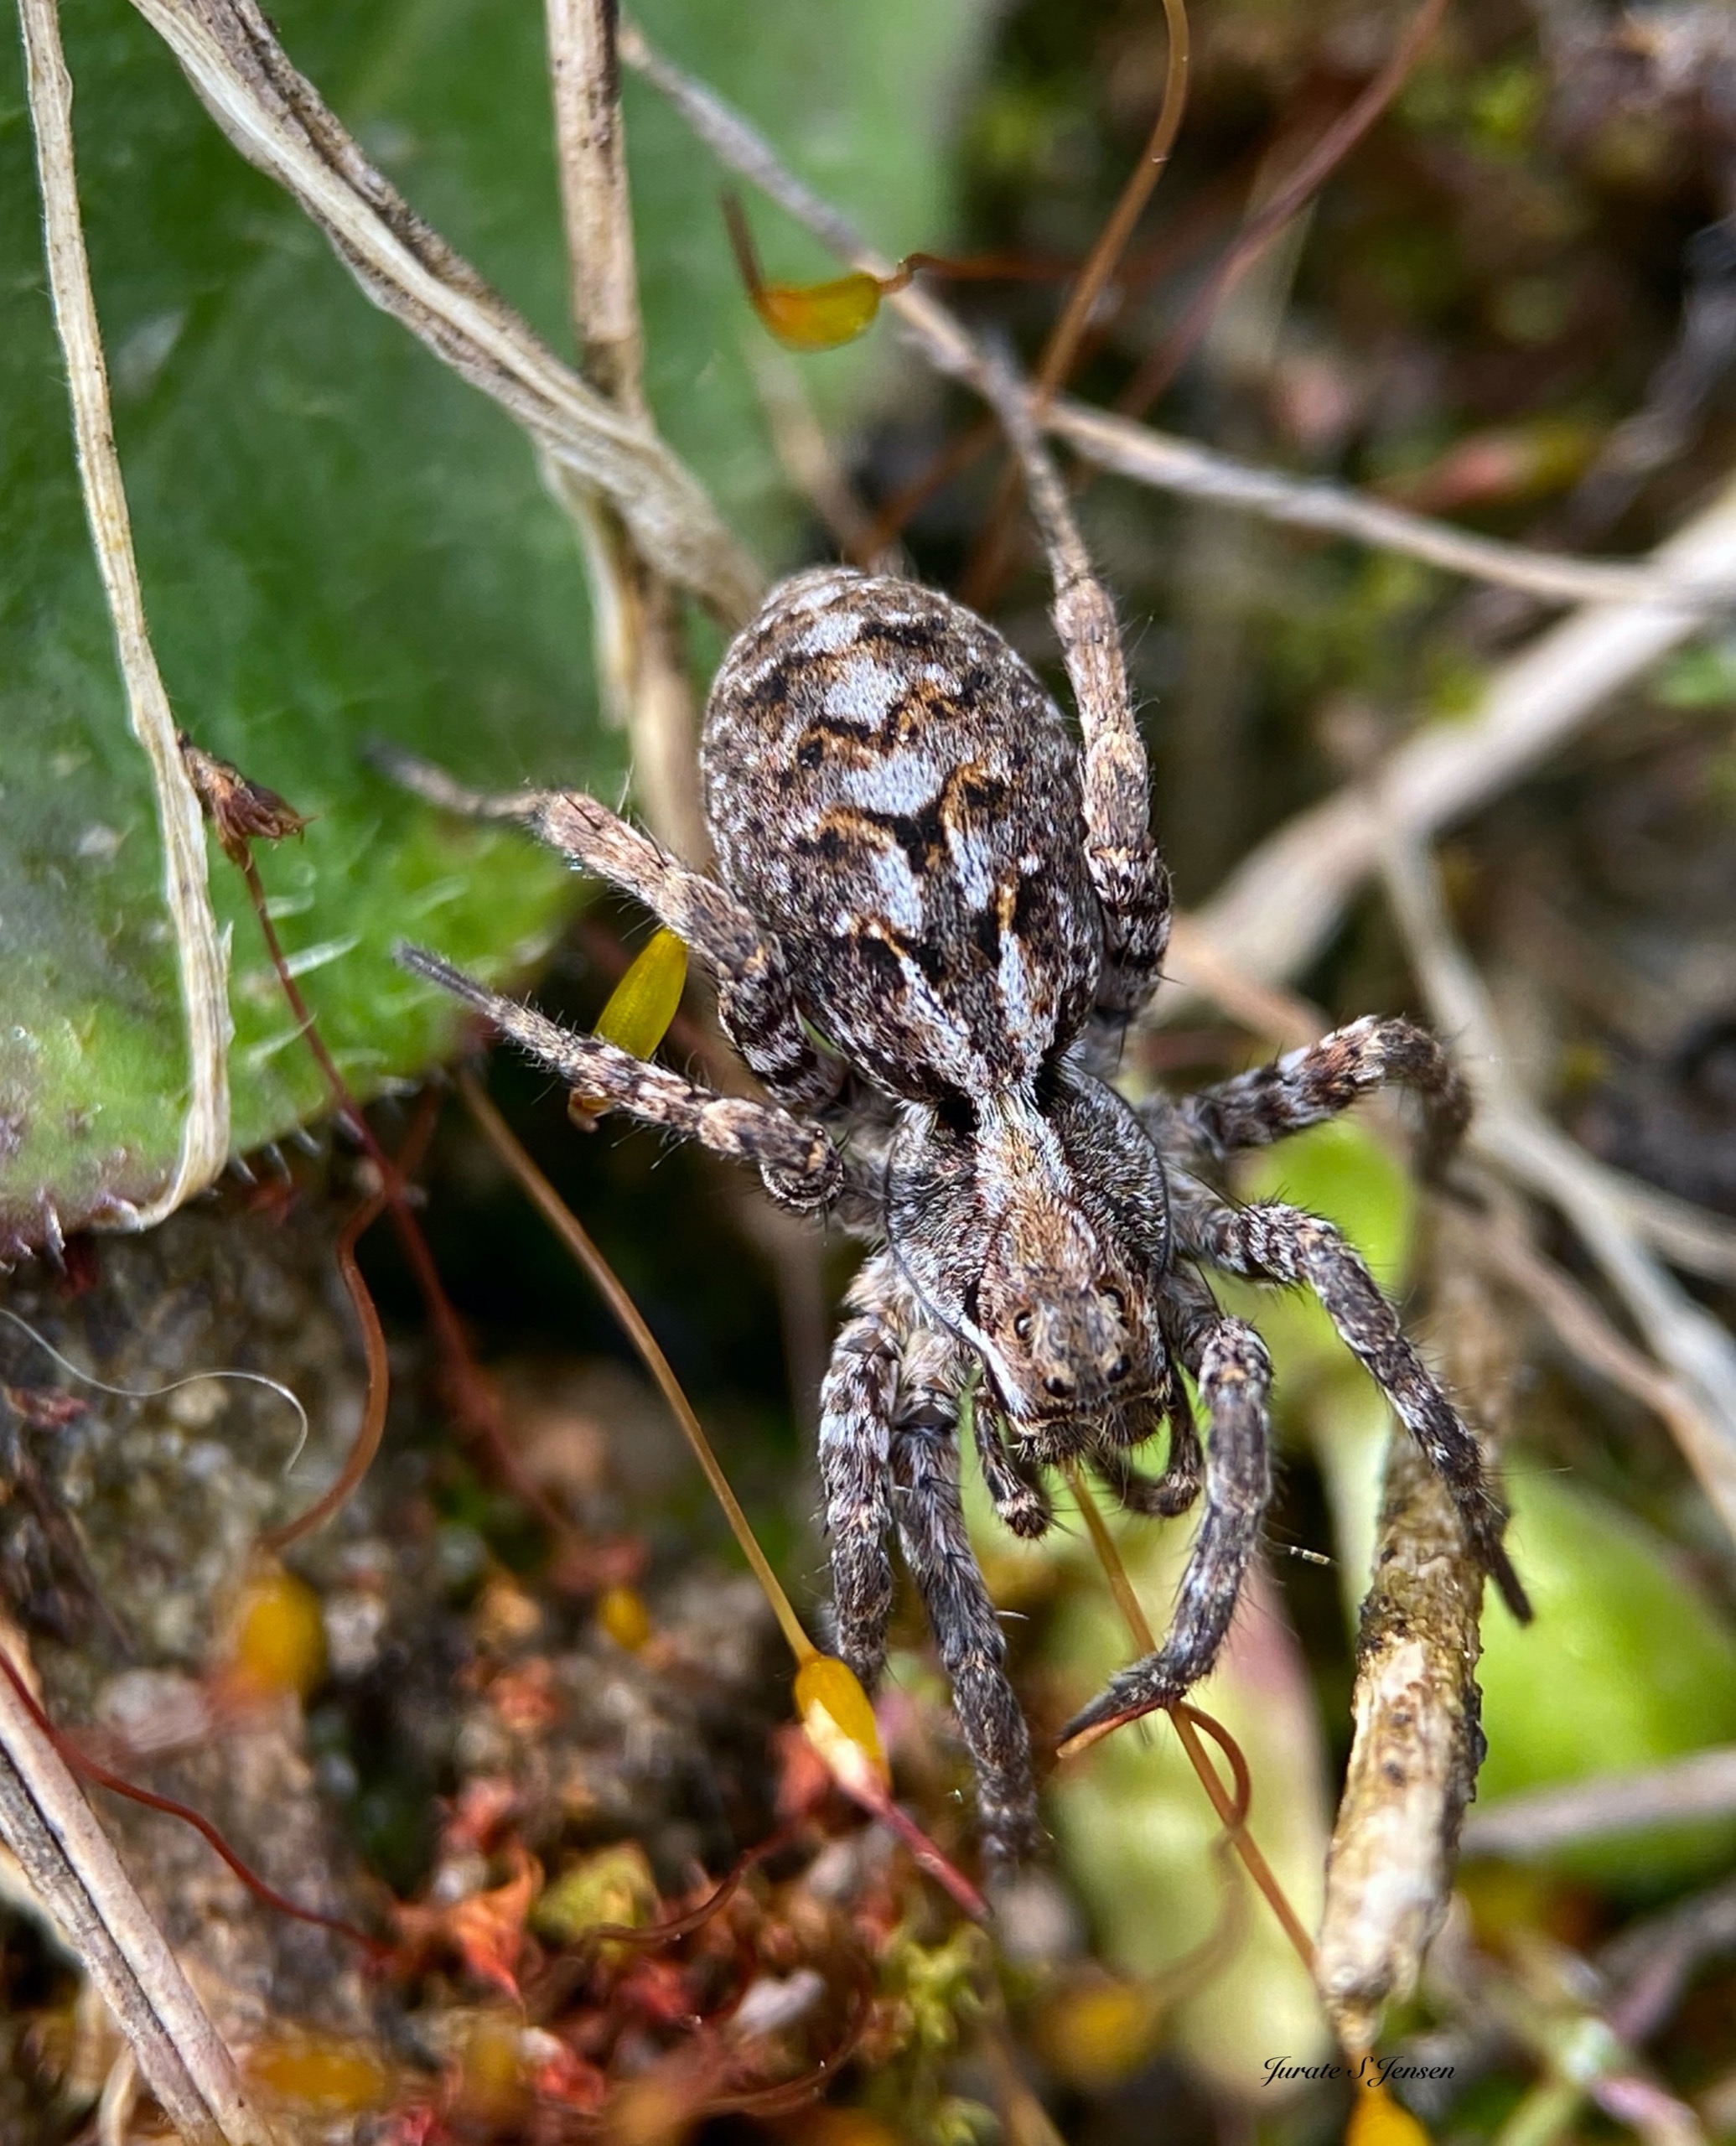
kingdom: Animalia
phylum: Arthropoda
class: Arachnida
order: Araneae
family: Lycosidae
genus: Alopecosa
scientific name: Alopecosa barbipes
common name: Klitkæmpejæger
